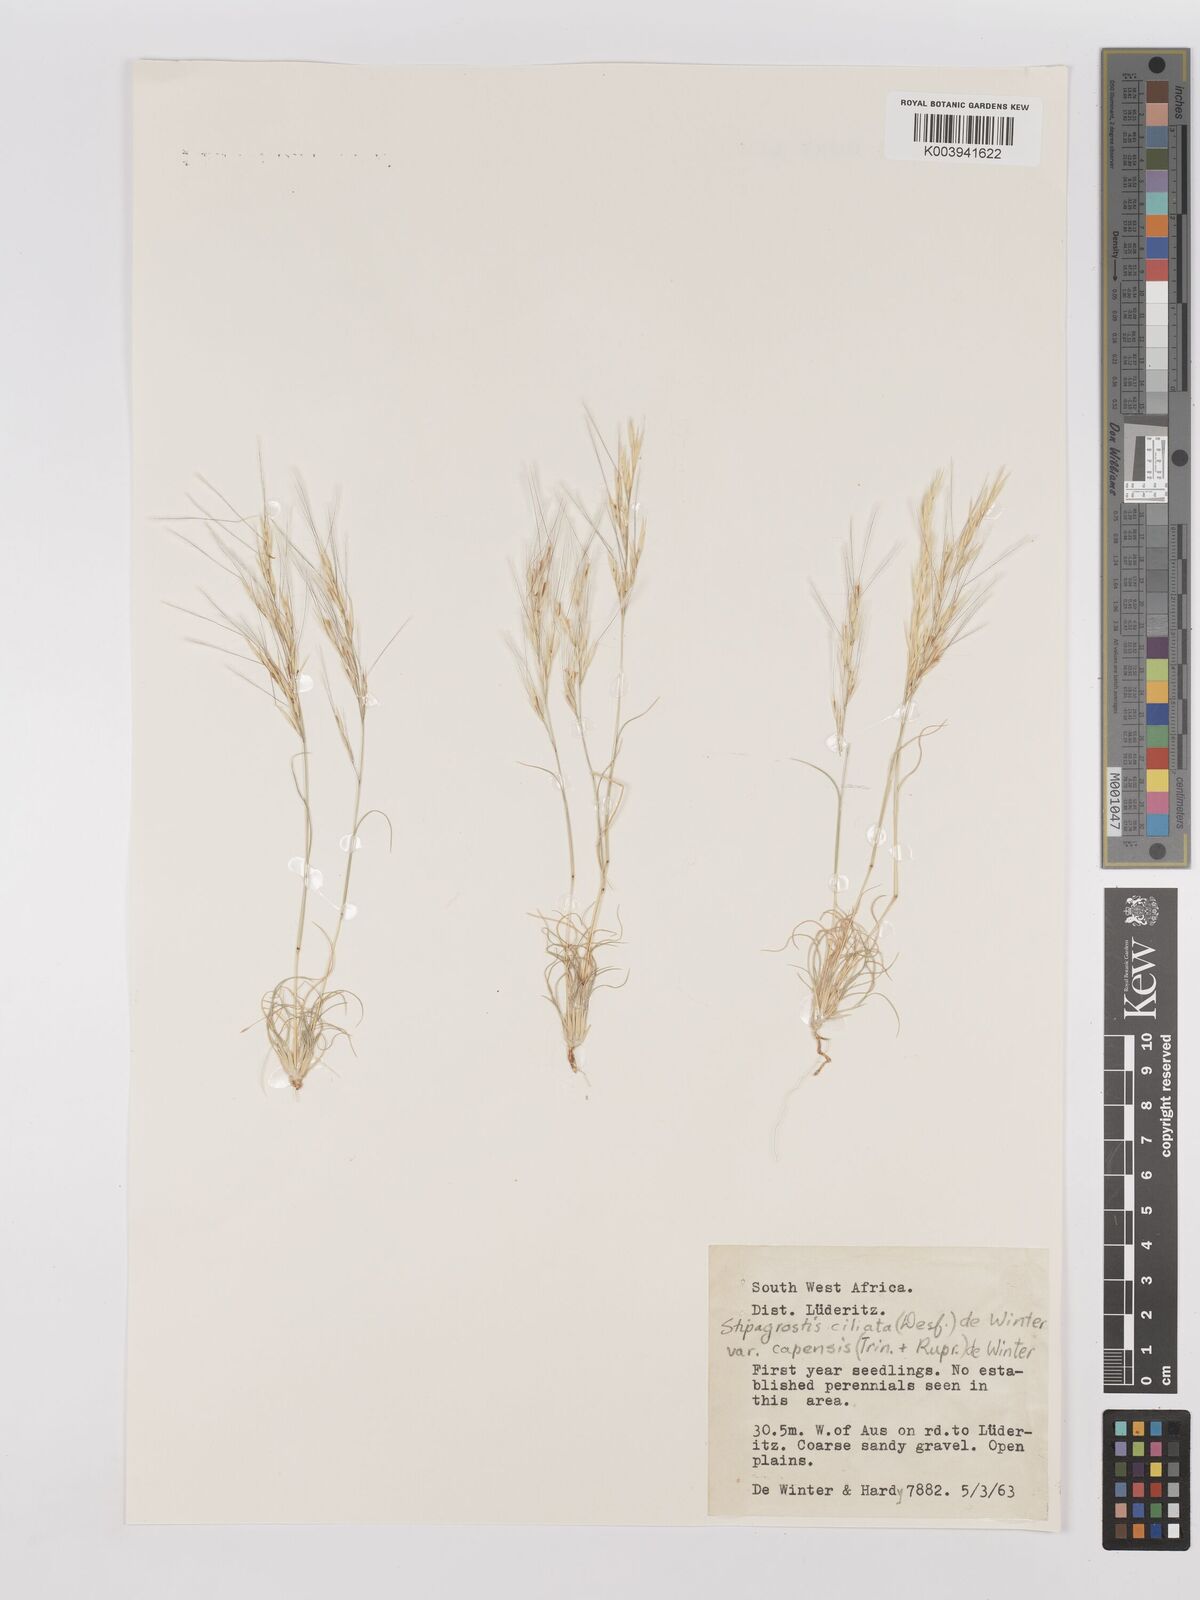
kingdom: Plantae
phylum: Tracheophyta
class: Liliopsida
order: Poales
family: Poaceae
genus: Stipagrostis
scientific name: Stipagrostis ciliata
